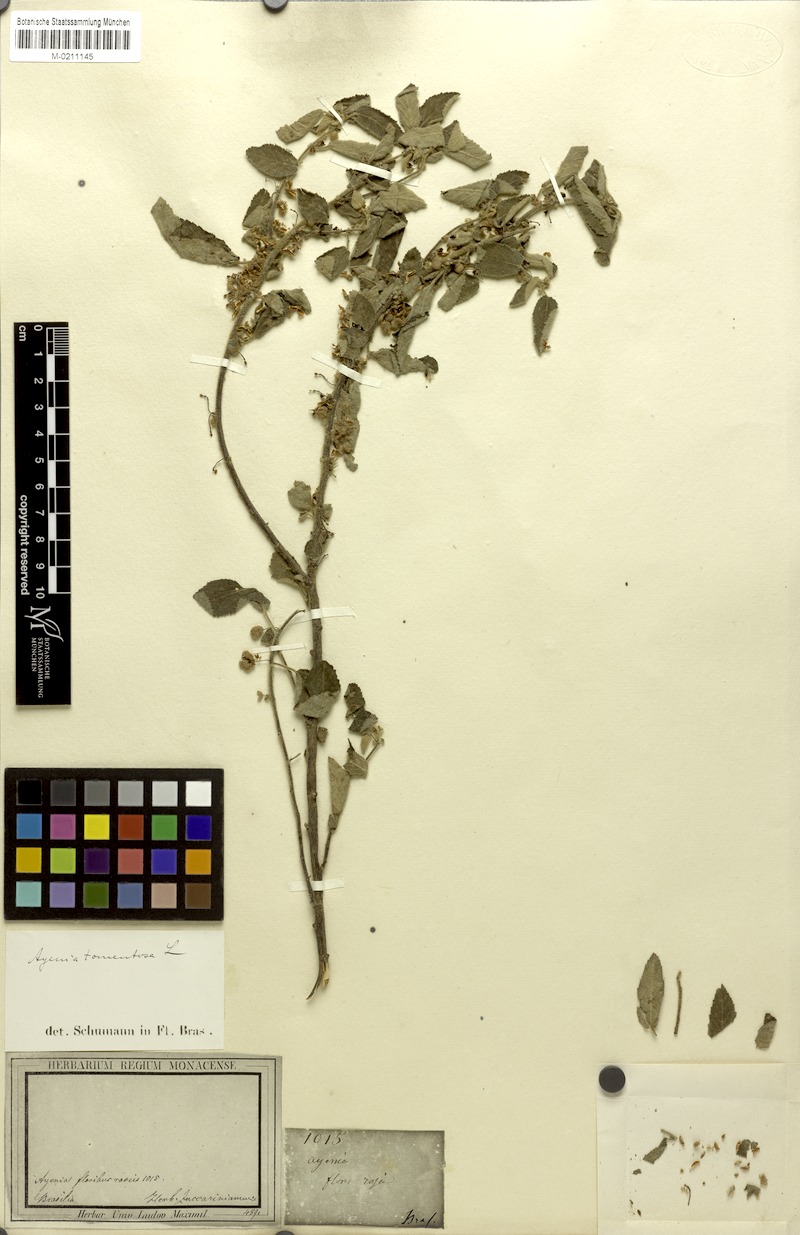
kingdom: Plantae
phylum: Tracheophyta
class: Magnoliopsida
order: Malvales
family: Malvaceae
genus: Ayenia
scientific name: Ayenia tomentosa
